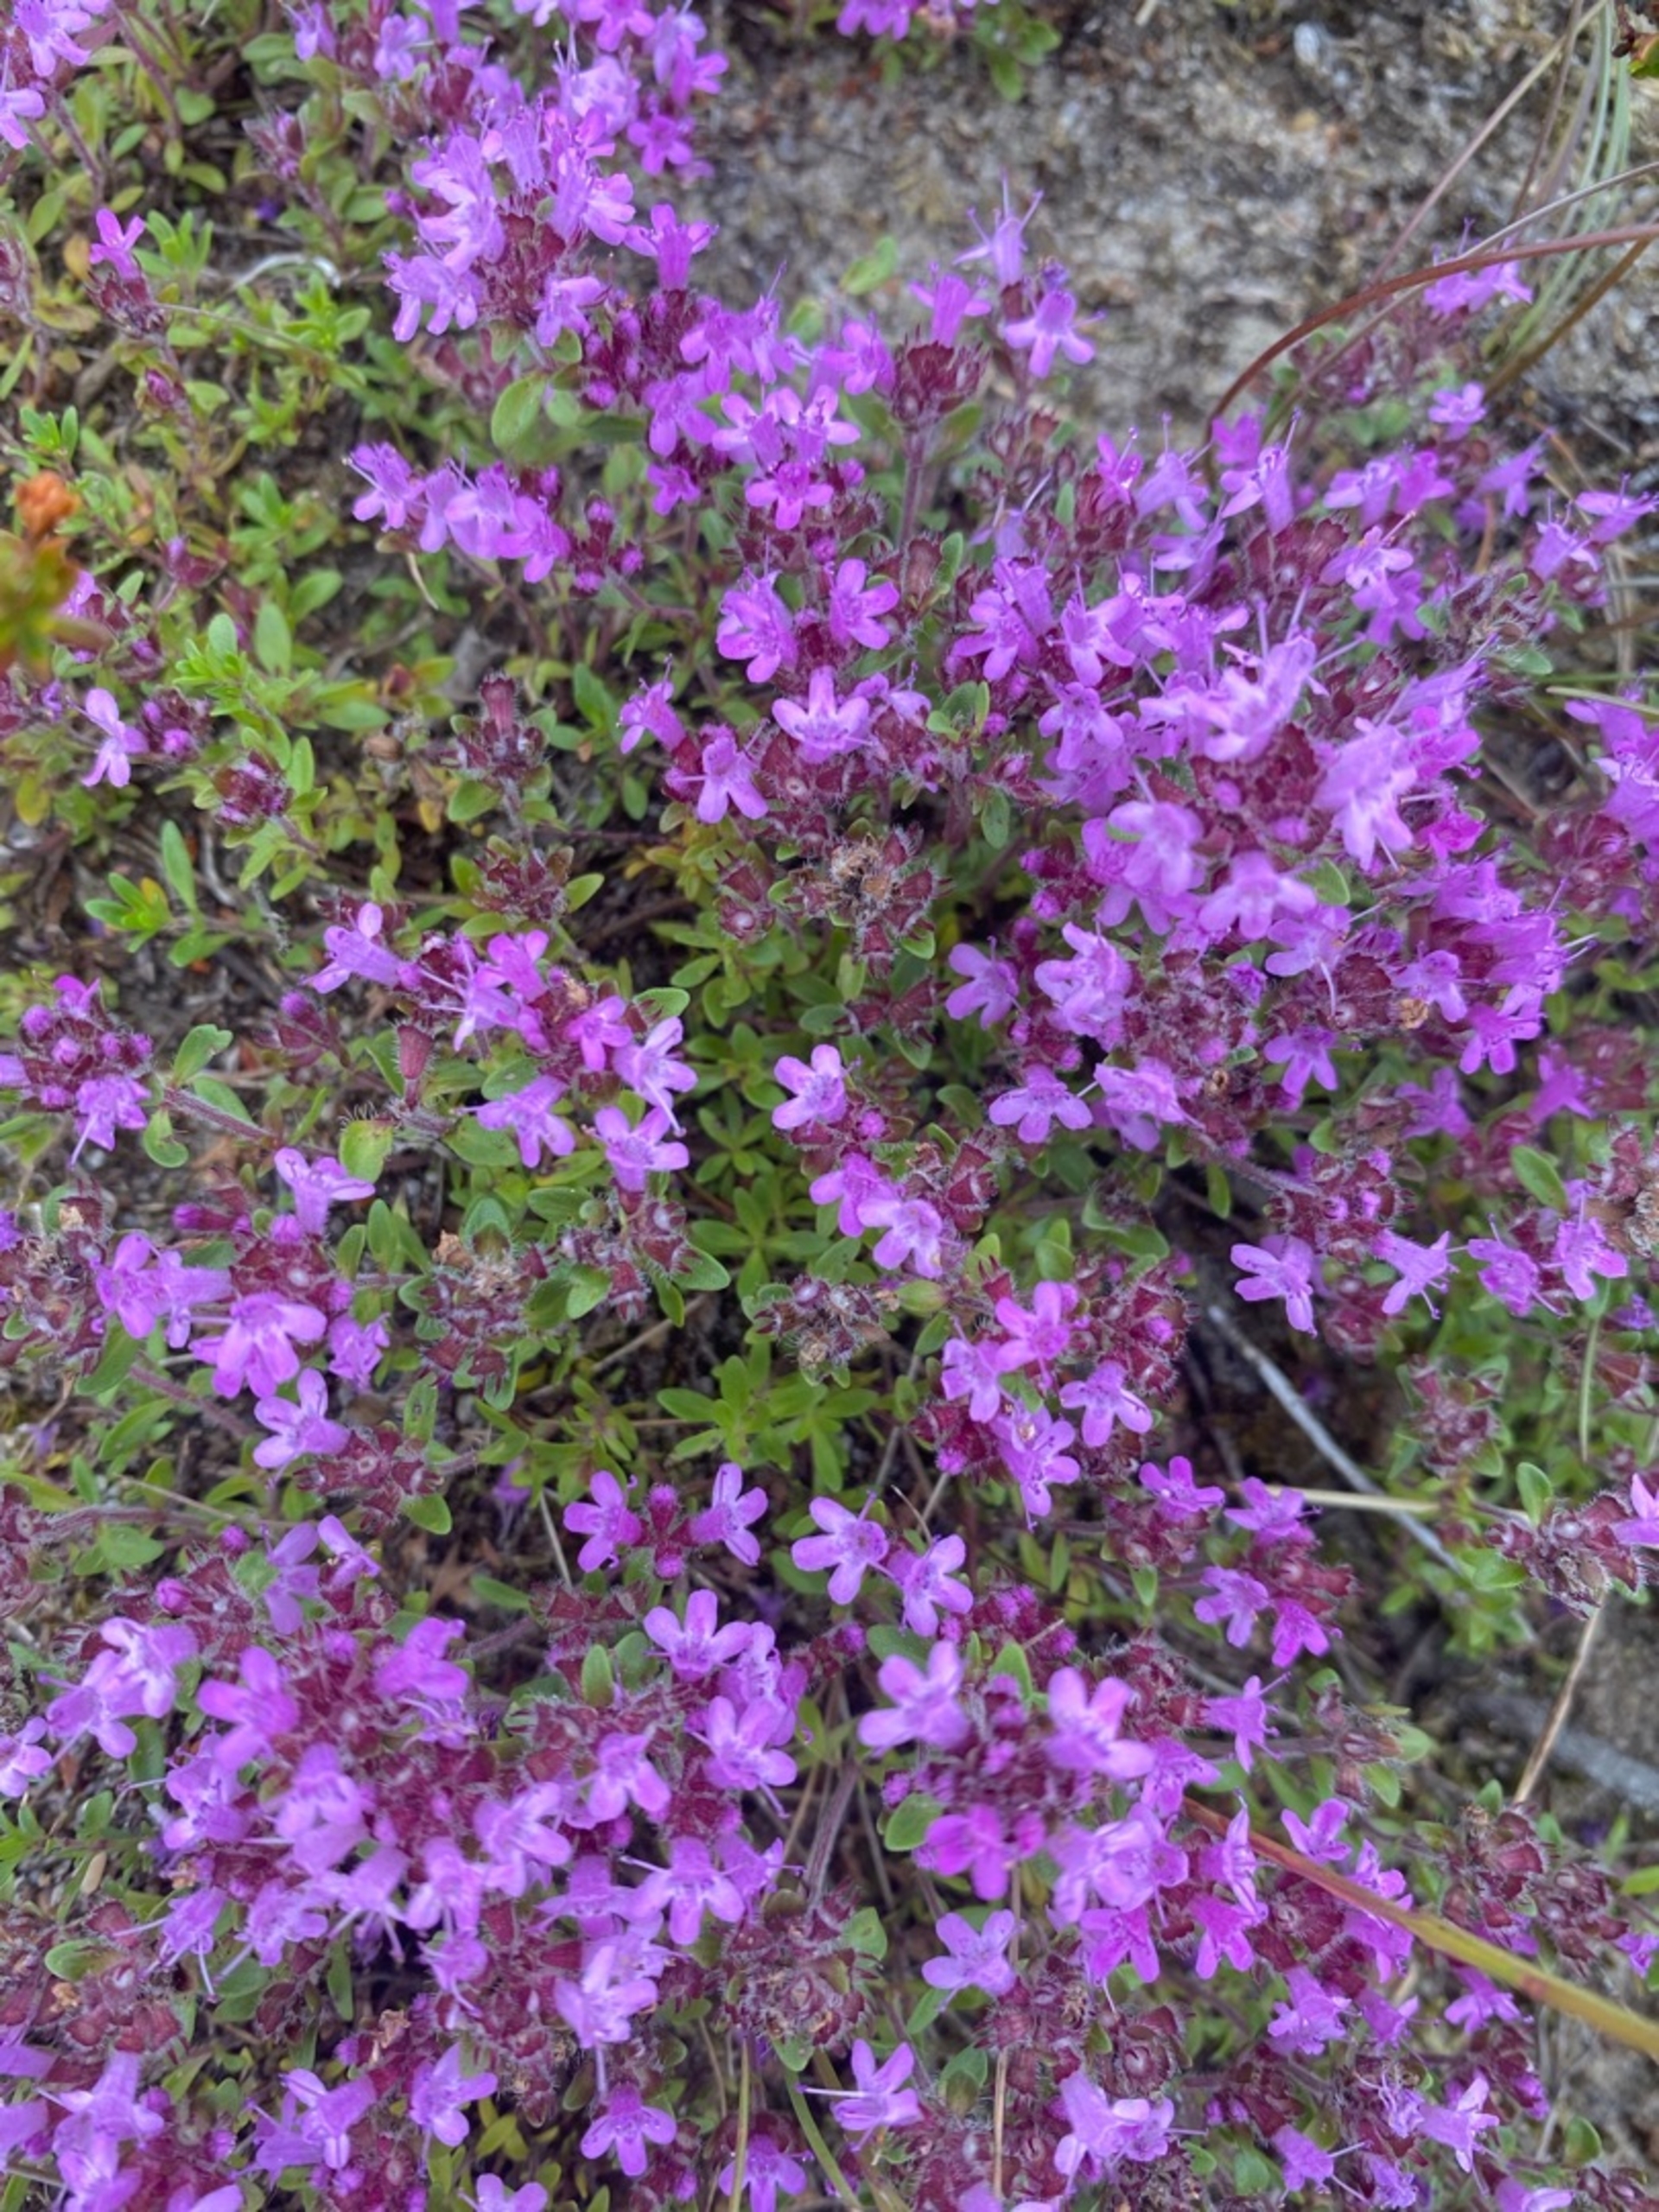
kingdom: Plantae
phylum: Tracheophyta
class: Magnoliopsida
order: Lamiales
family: Lamiaceae
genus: Thymus
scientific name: Thymus serpyllum
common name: Smalbladet timian
